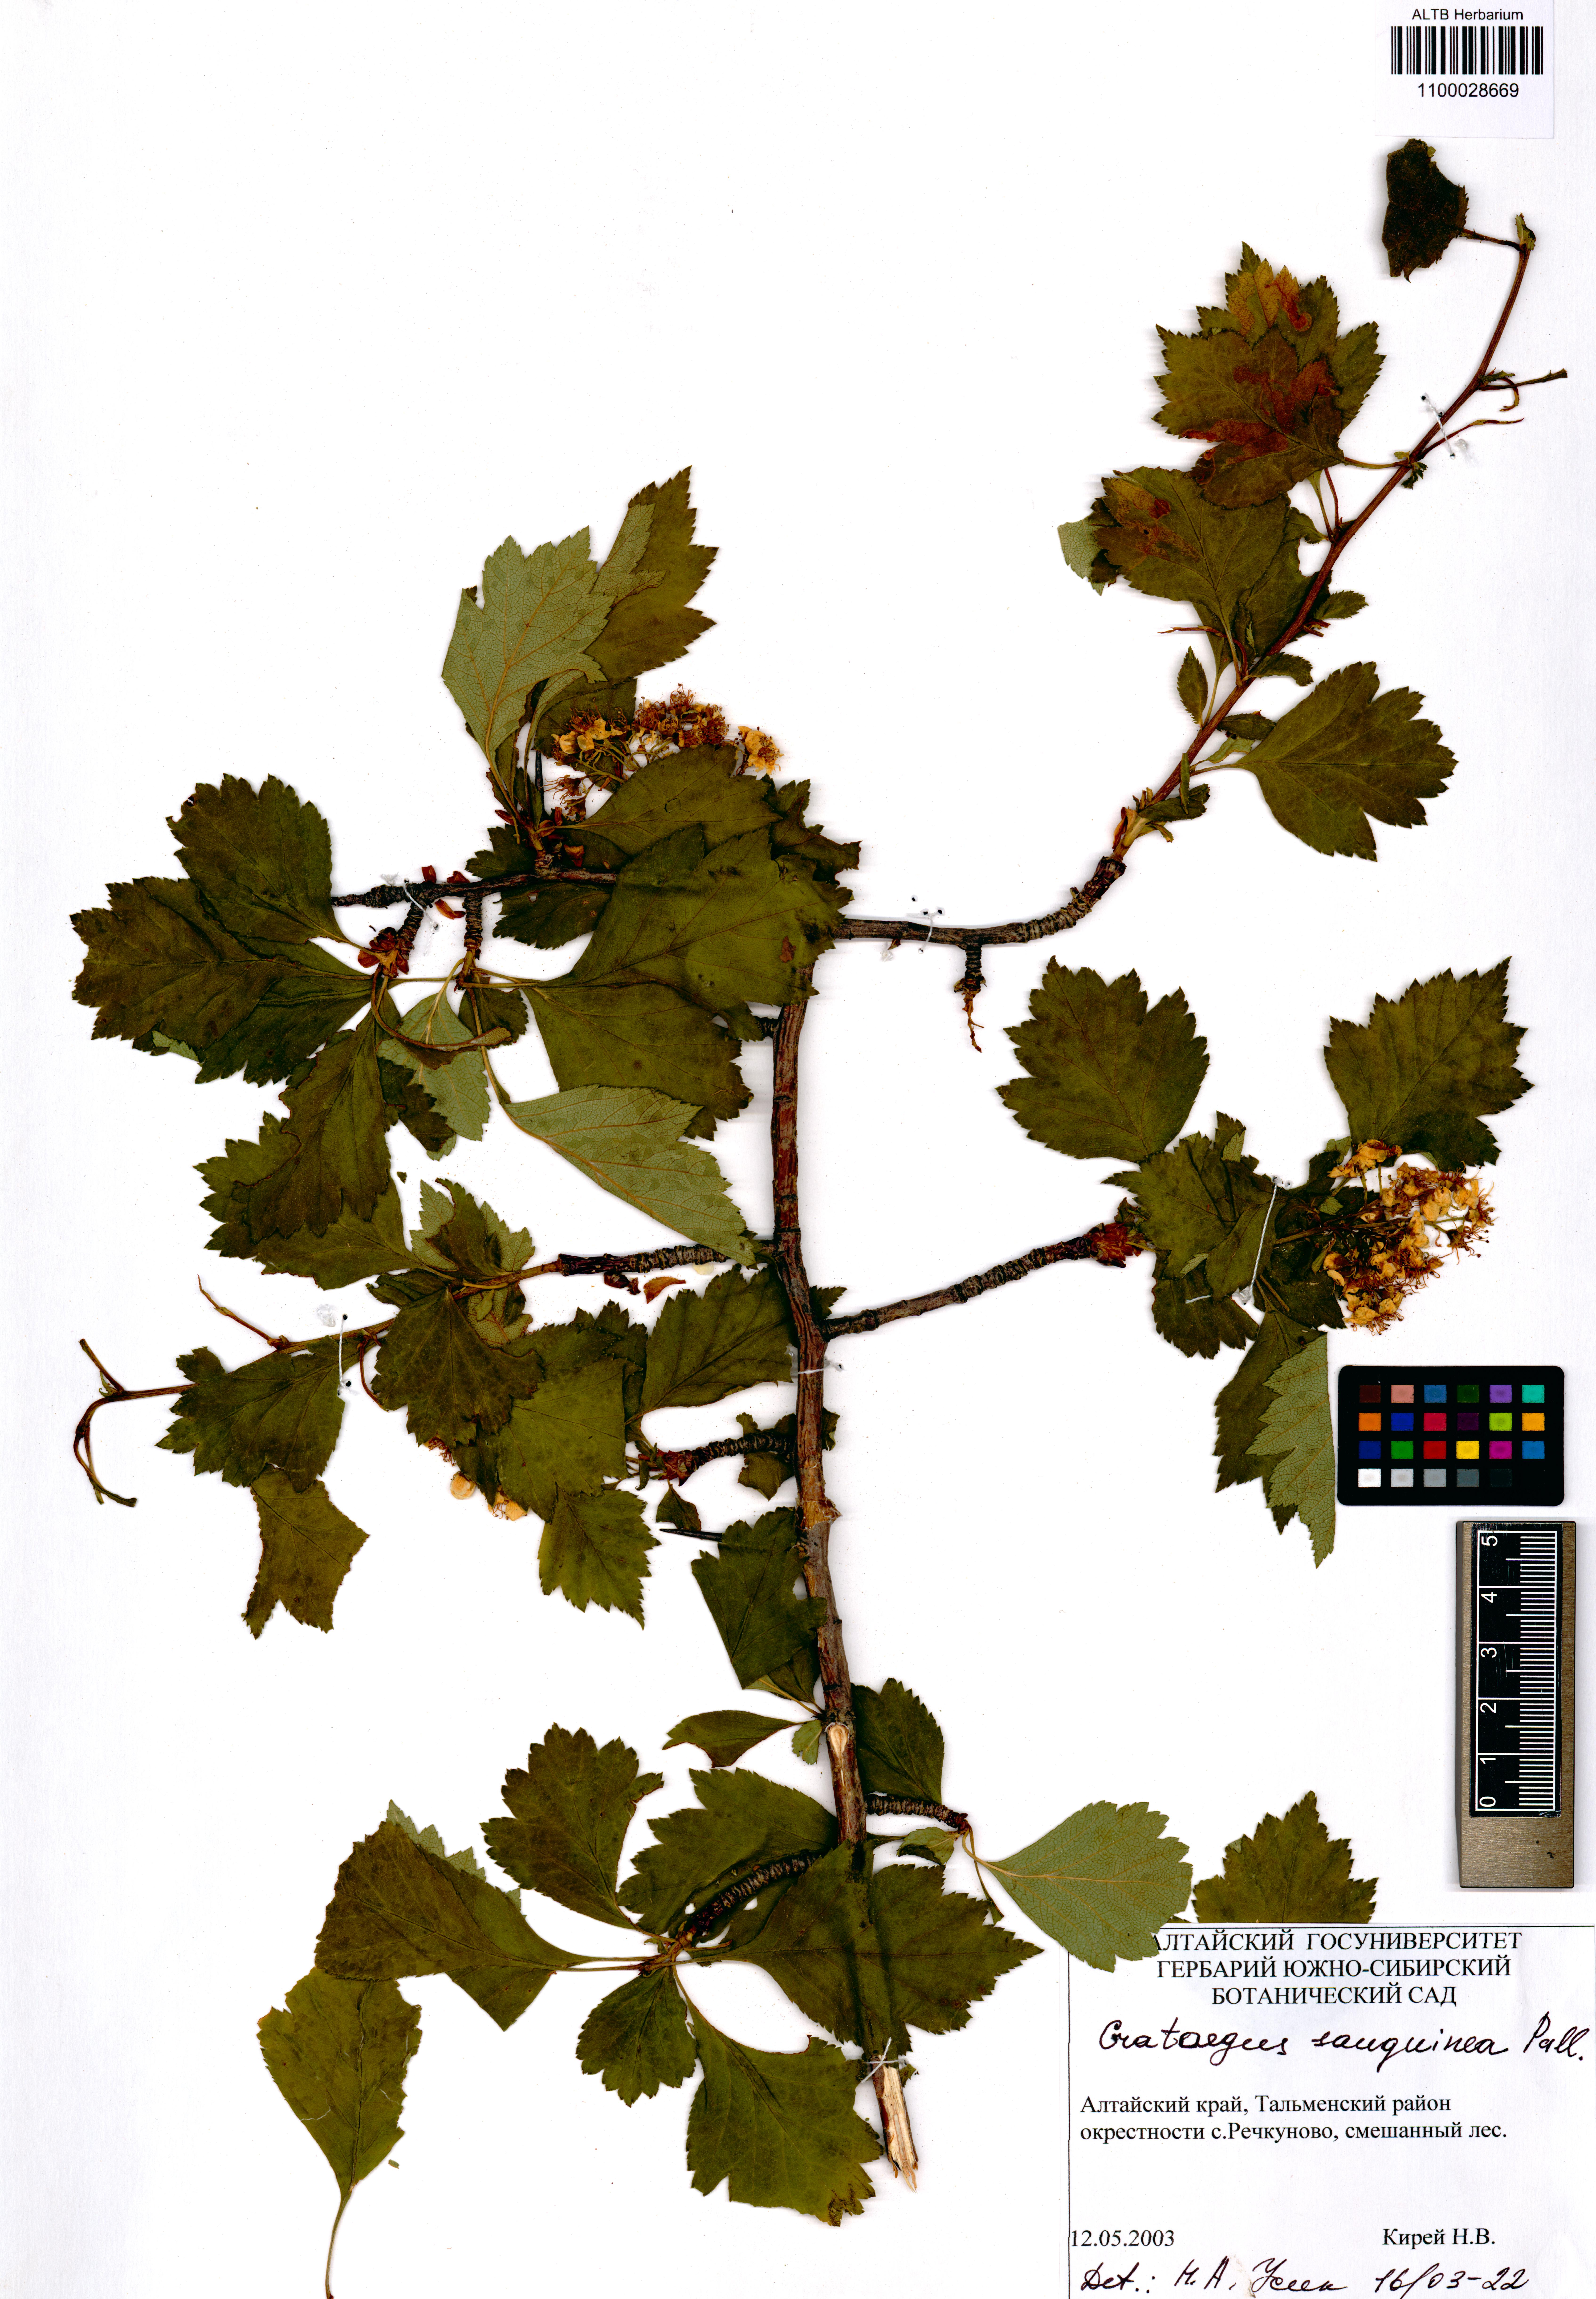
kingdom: Plantae
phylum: Tracheophyta
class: Magnoliopsida
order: Rosales
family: Rosaceae
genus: Crataegus
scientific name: Crataegus sanguinea
